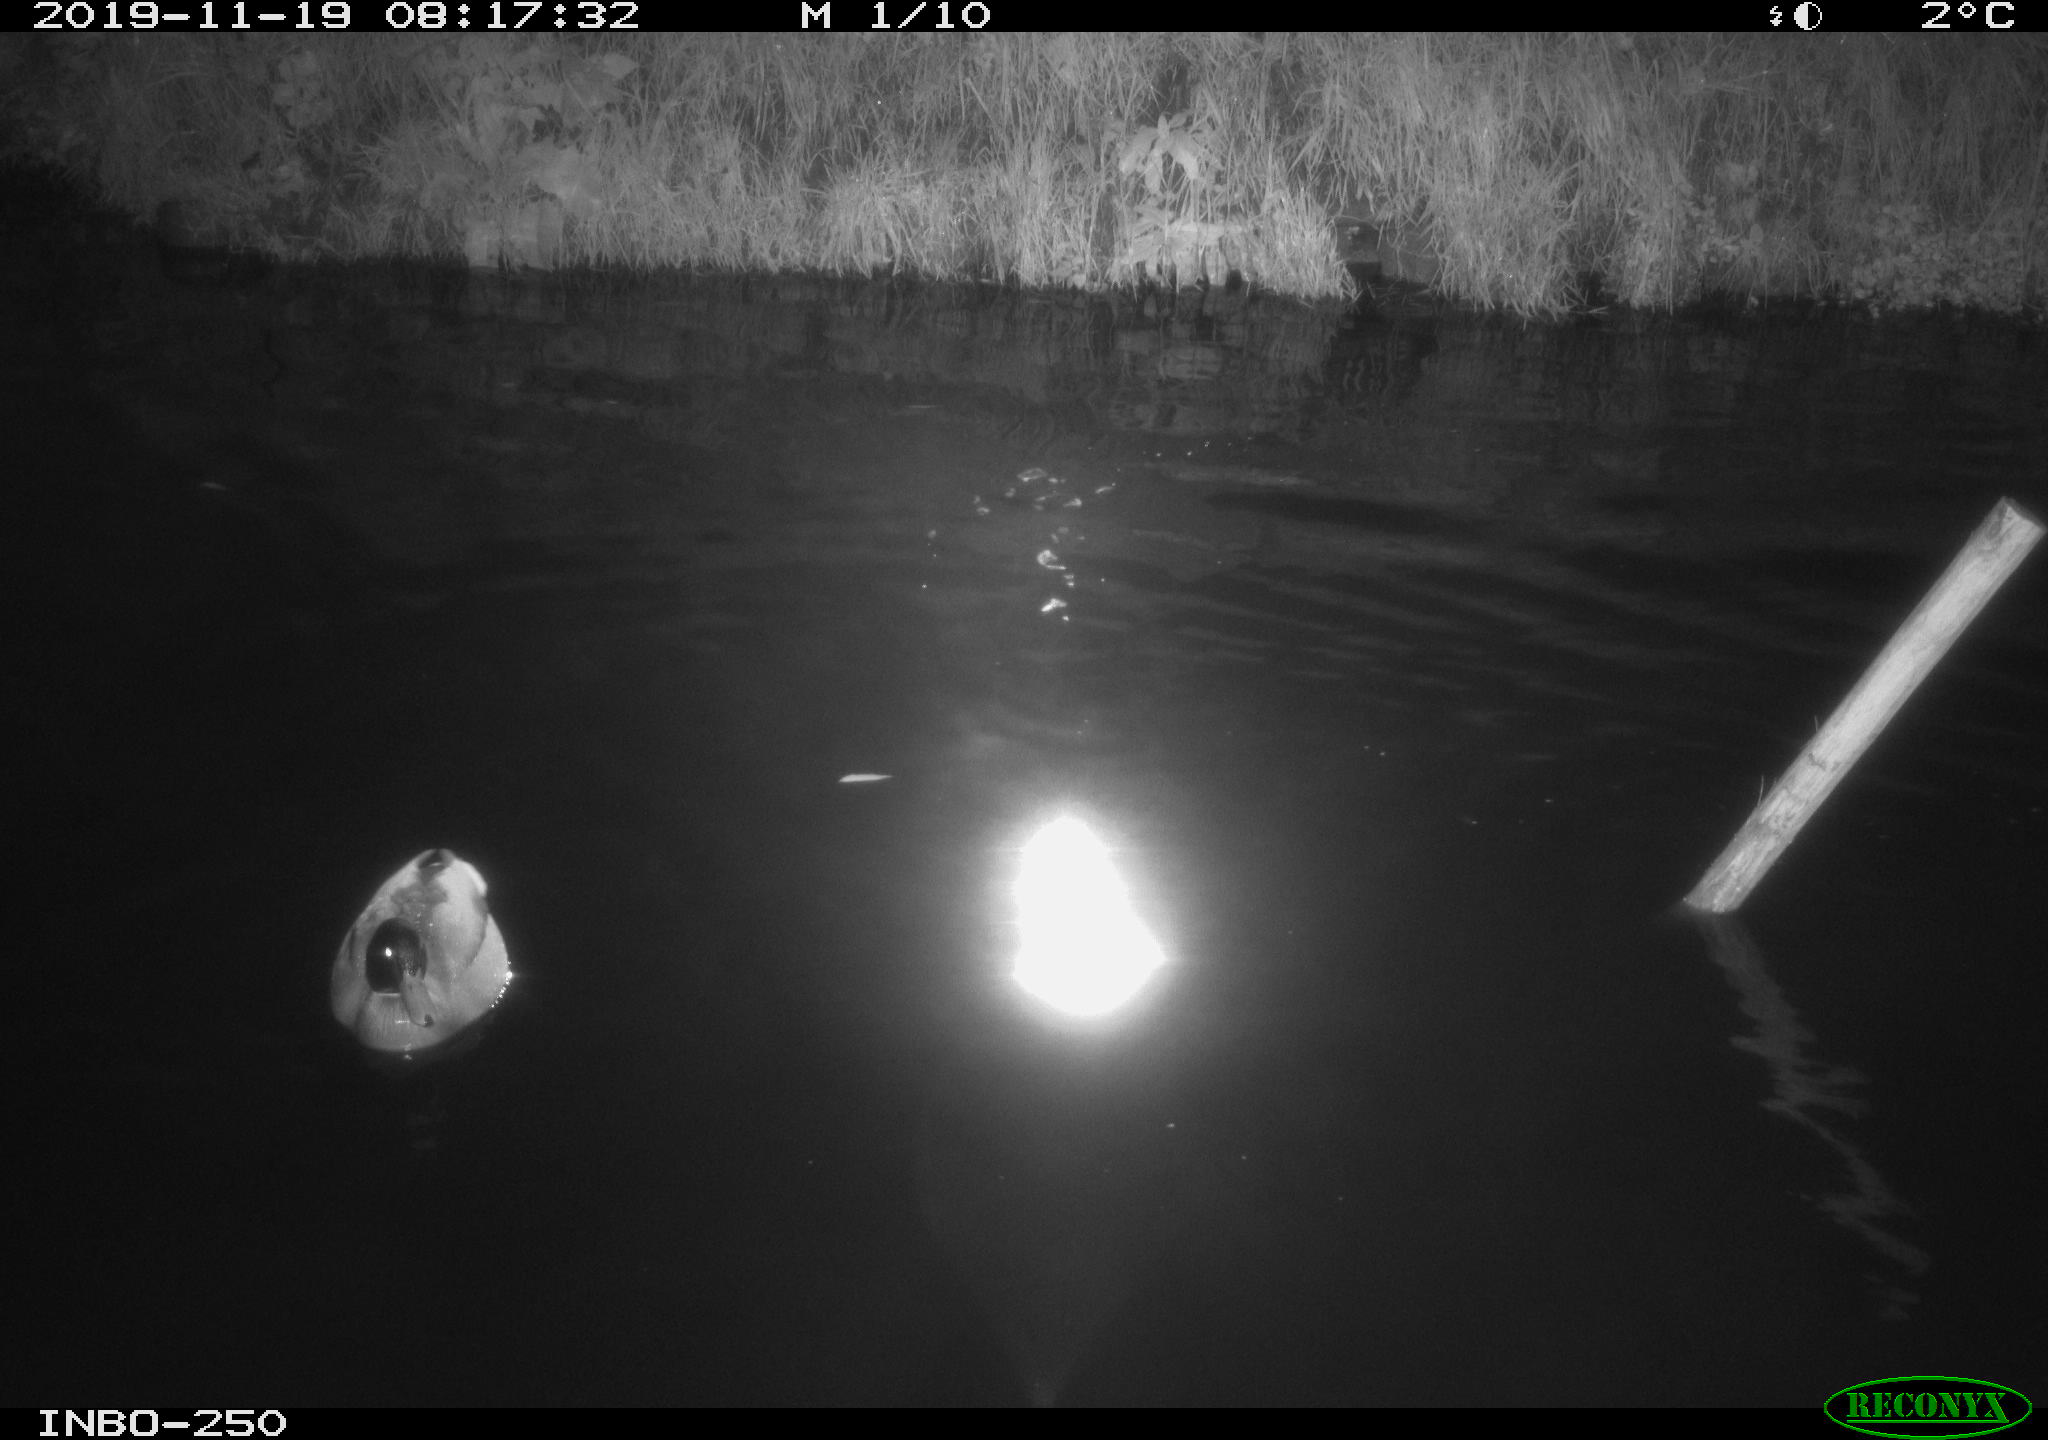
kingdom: Animalia
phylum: Chordata
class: Aves
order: Anseriformes
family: Anatidae
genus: Anas
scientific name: Anas platyrhynchos
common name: Mallard
